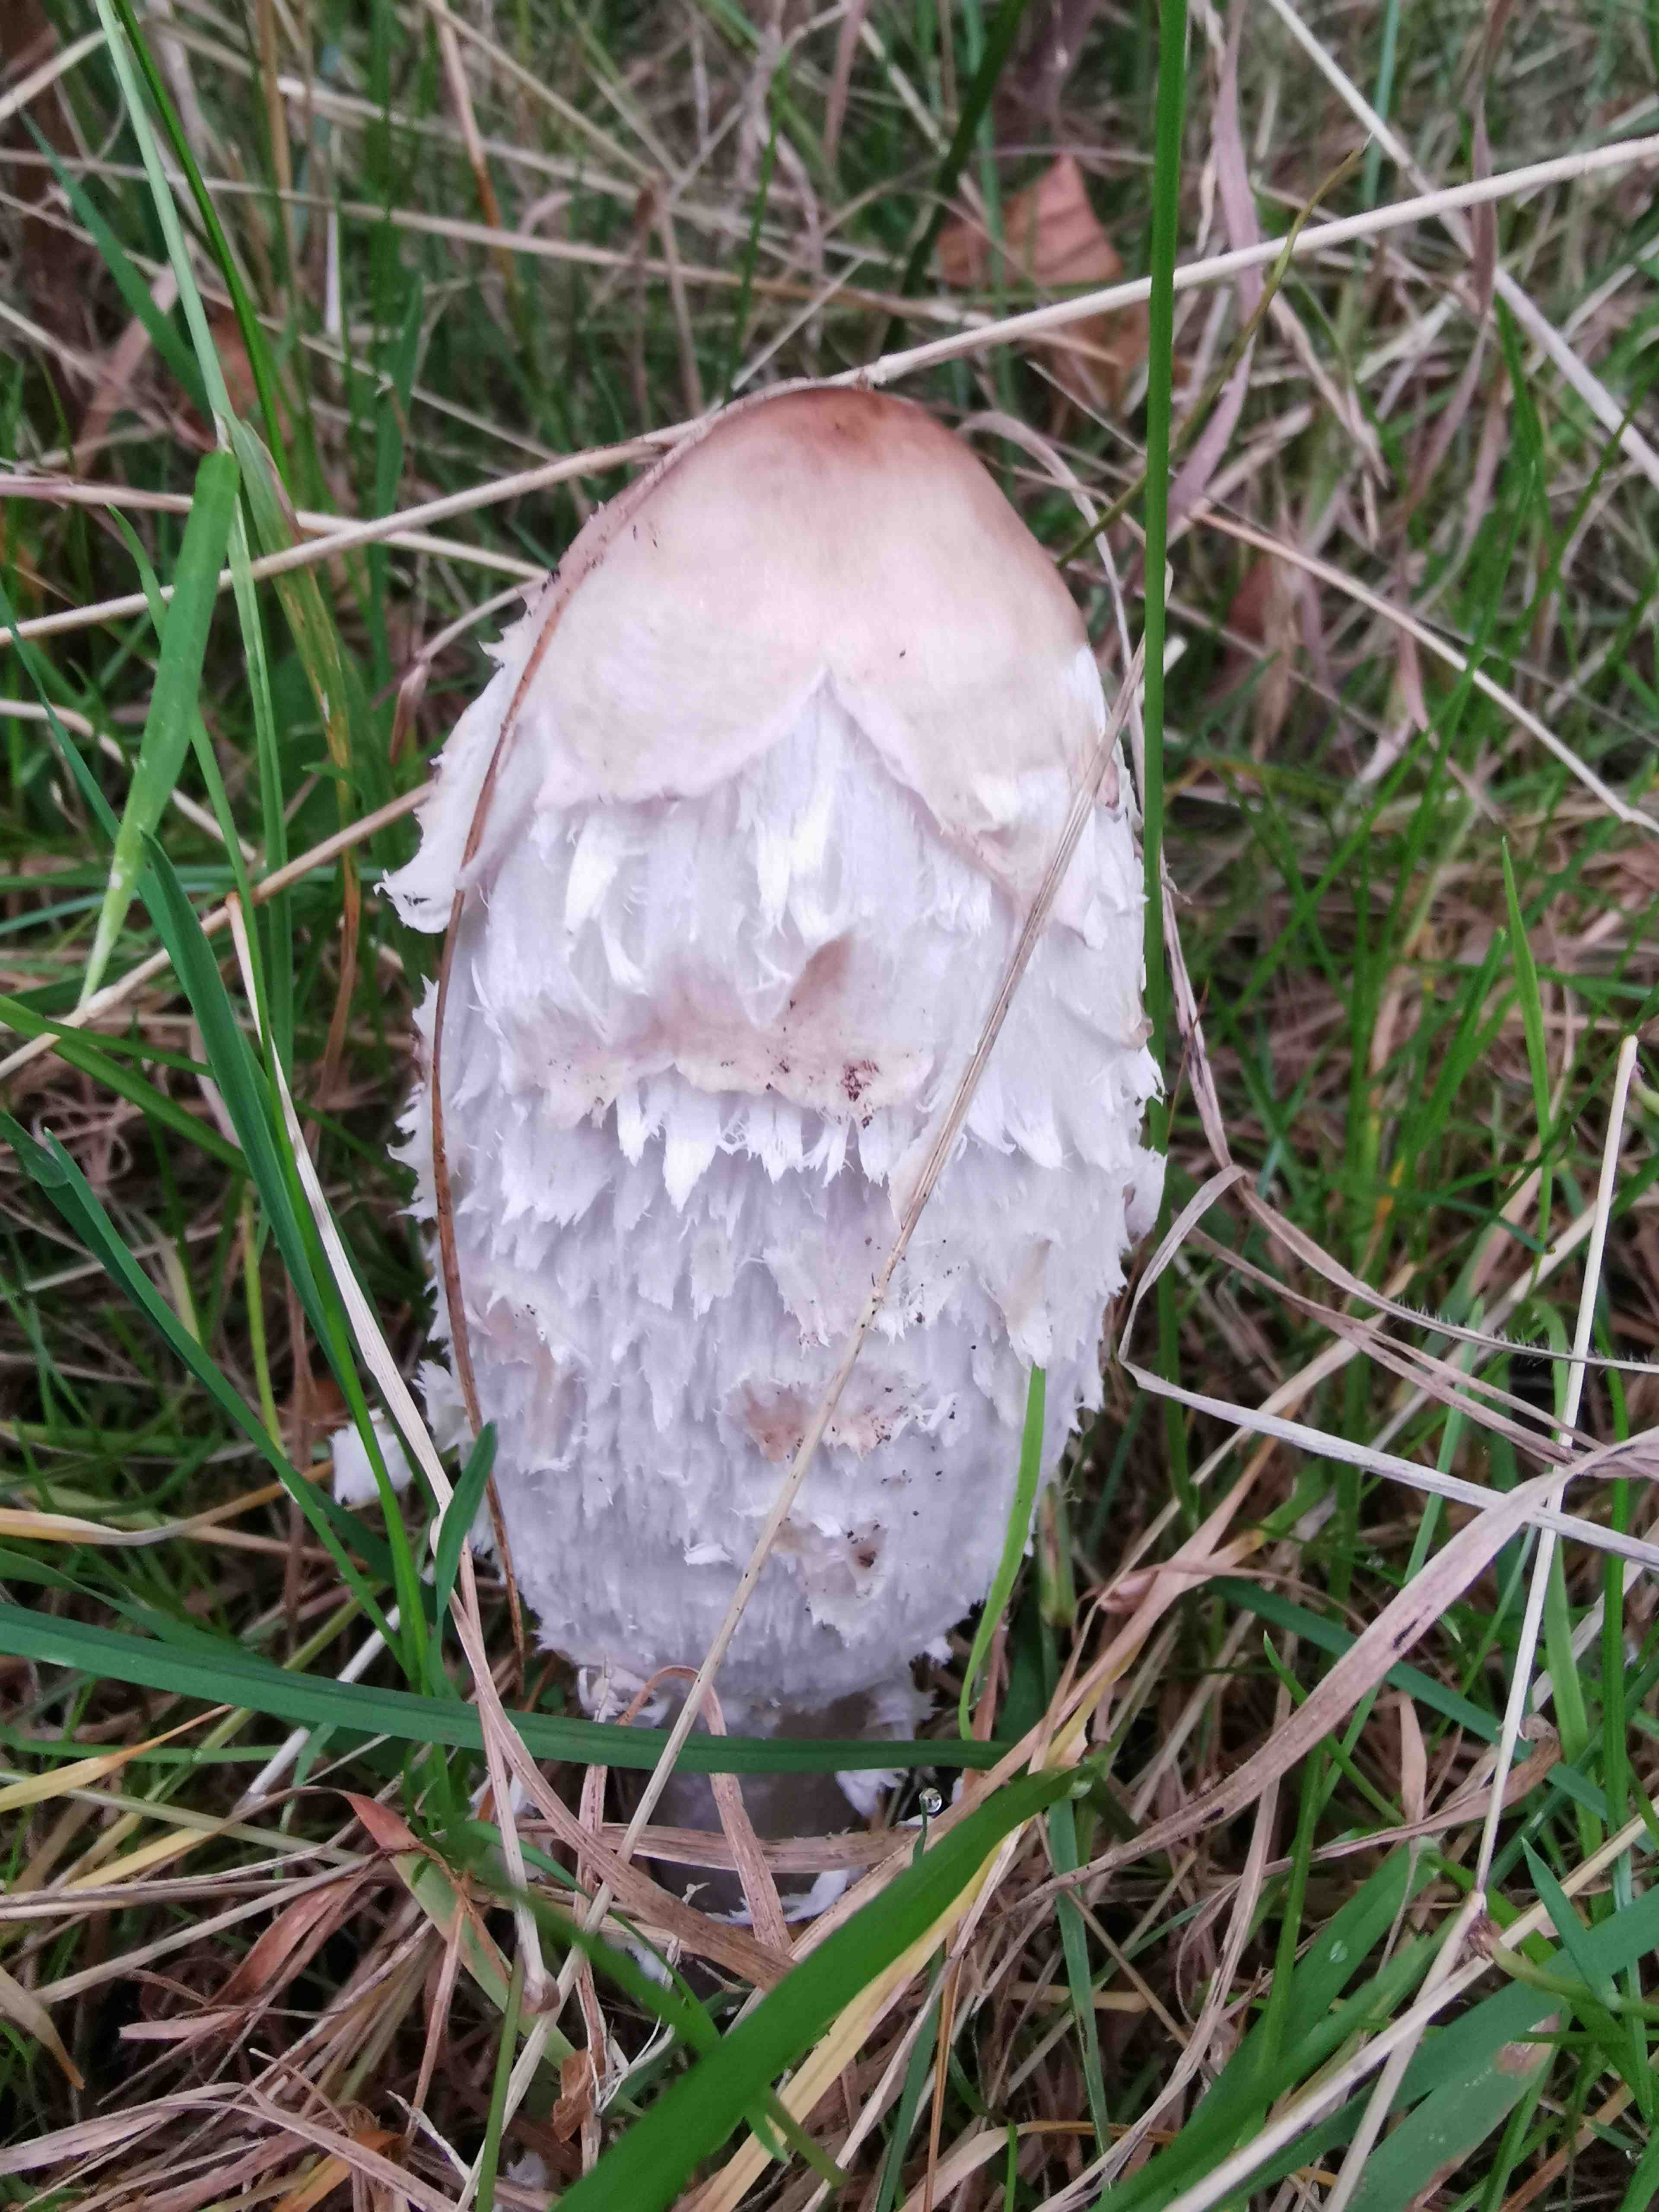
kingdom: Fungi
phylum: Basidiomycota
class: Agaricomycetes
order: Agaricales
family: Agaricaceae
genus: Coprinus
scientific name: Coprinus comatus
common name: stor parykhat
